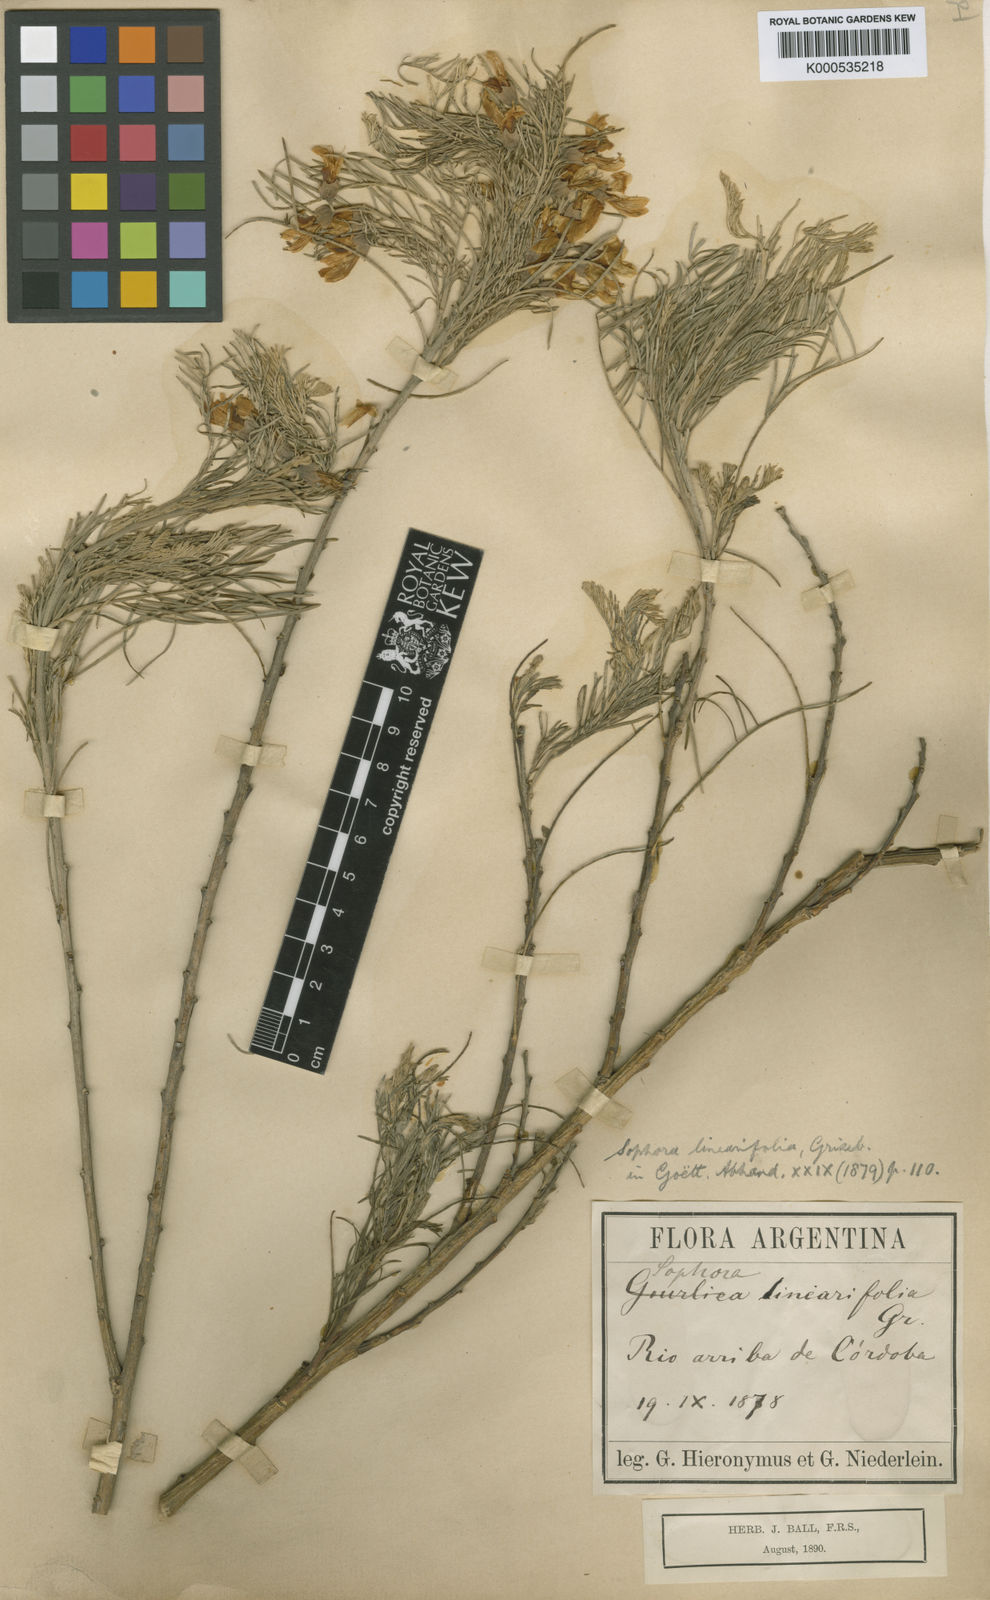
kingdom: Plantae
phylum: Tracheophyta
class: Magnoliopsida
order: Fabales
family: Fabaceae
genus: Sophora
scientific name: Sophora linearifolia
